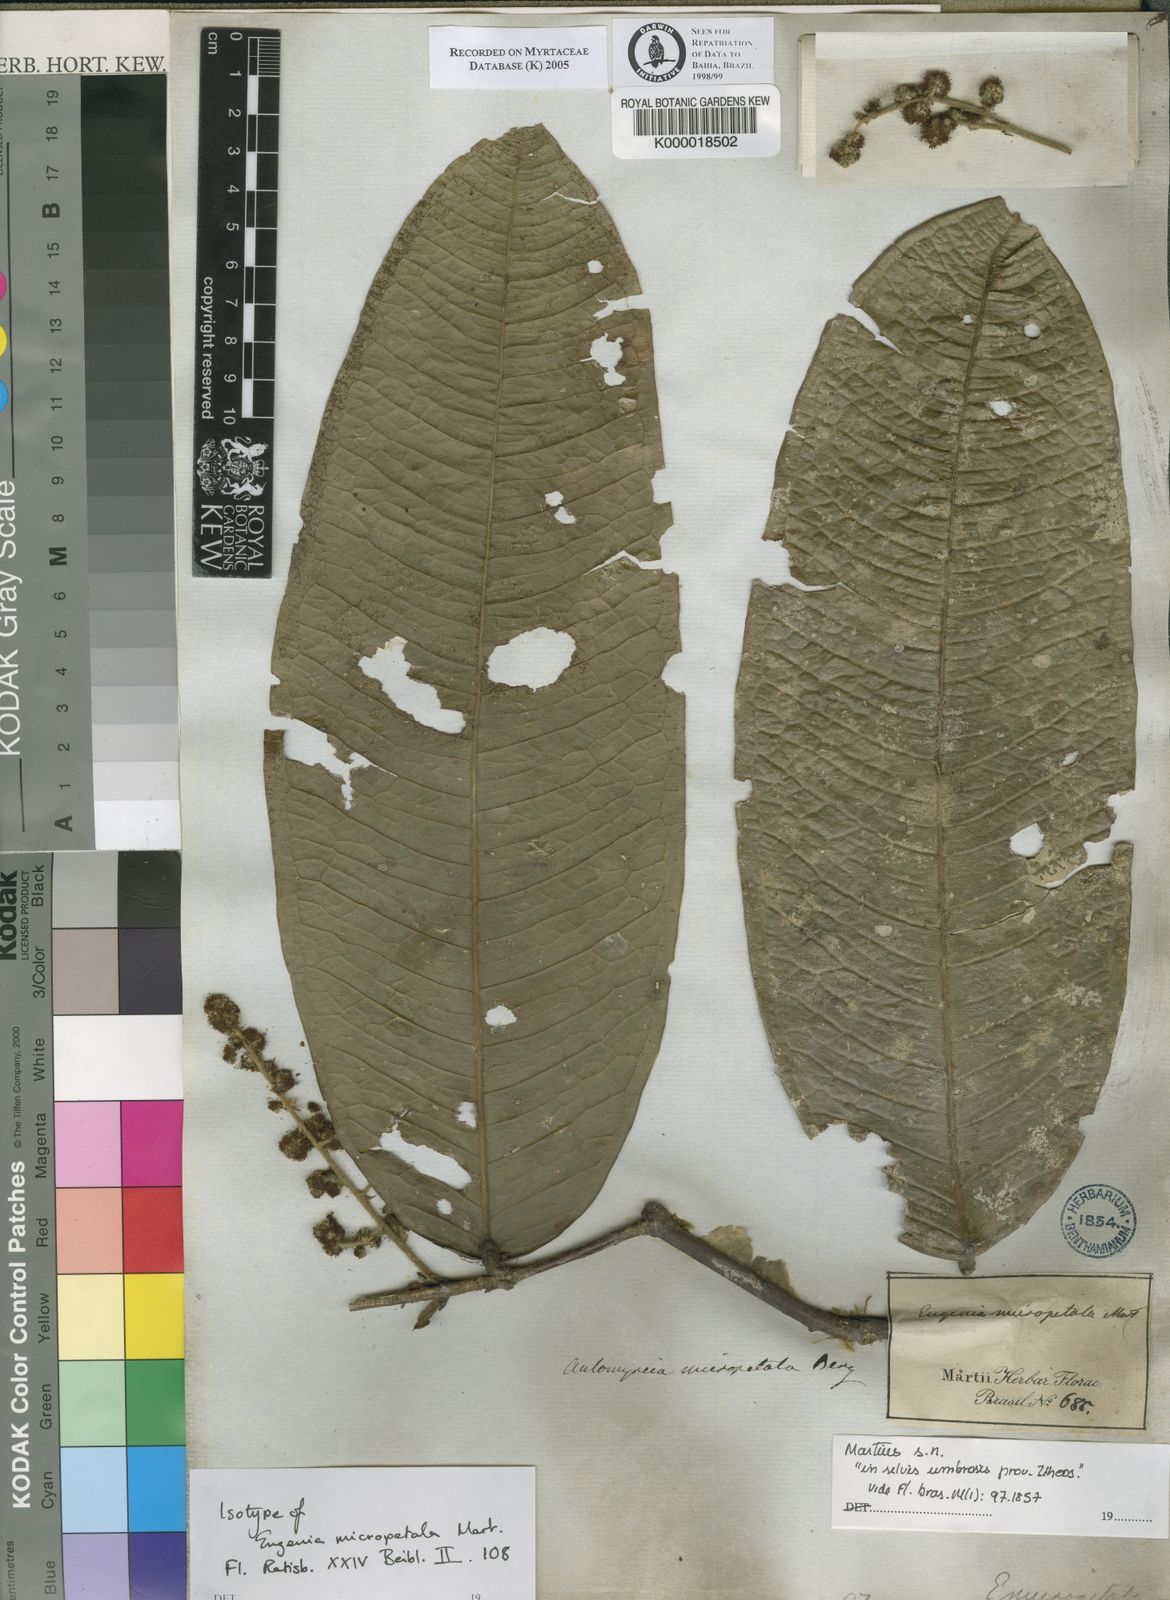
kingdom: Plantae
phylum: Tracheophyta
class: Magnoliopsida
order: Myrtales
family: Myrtaceae
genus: Myrcia
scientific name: Myrcia micropetala
